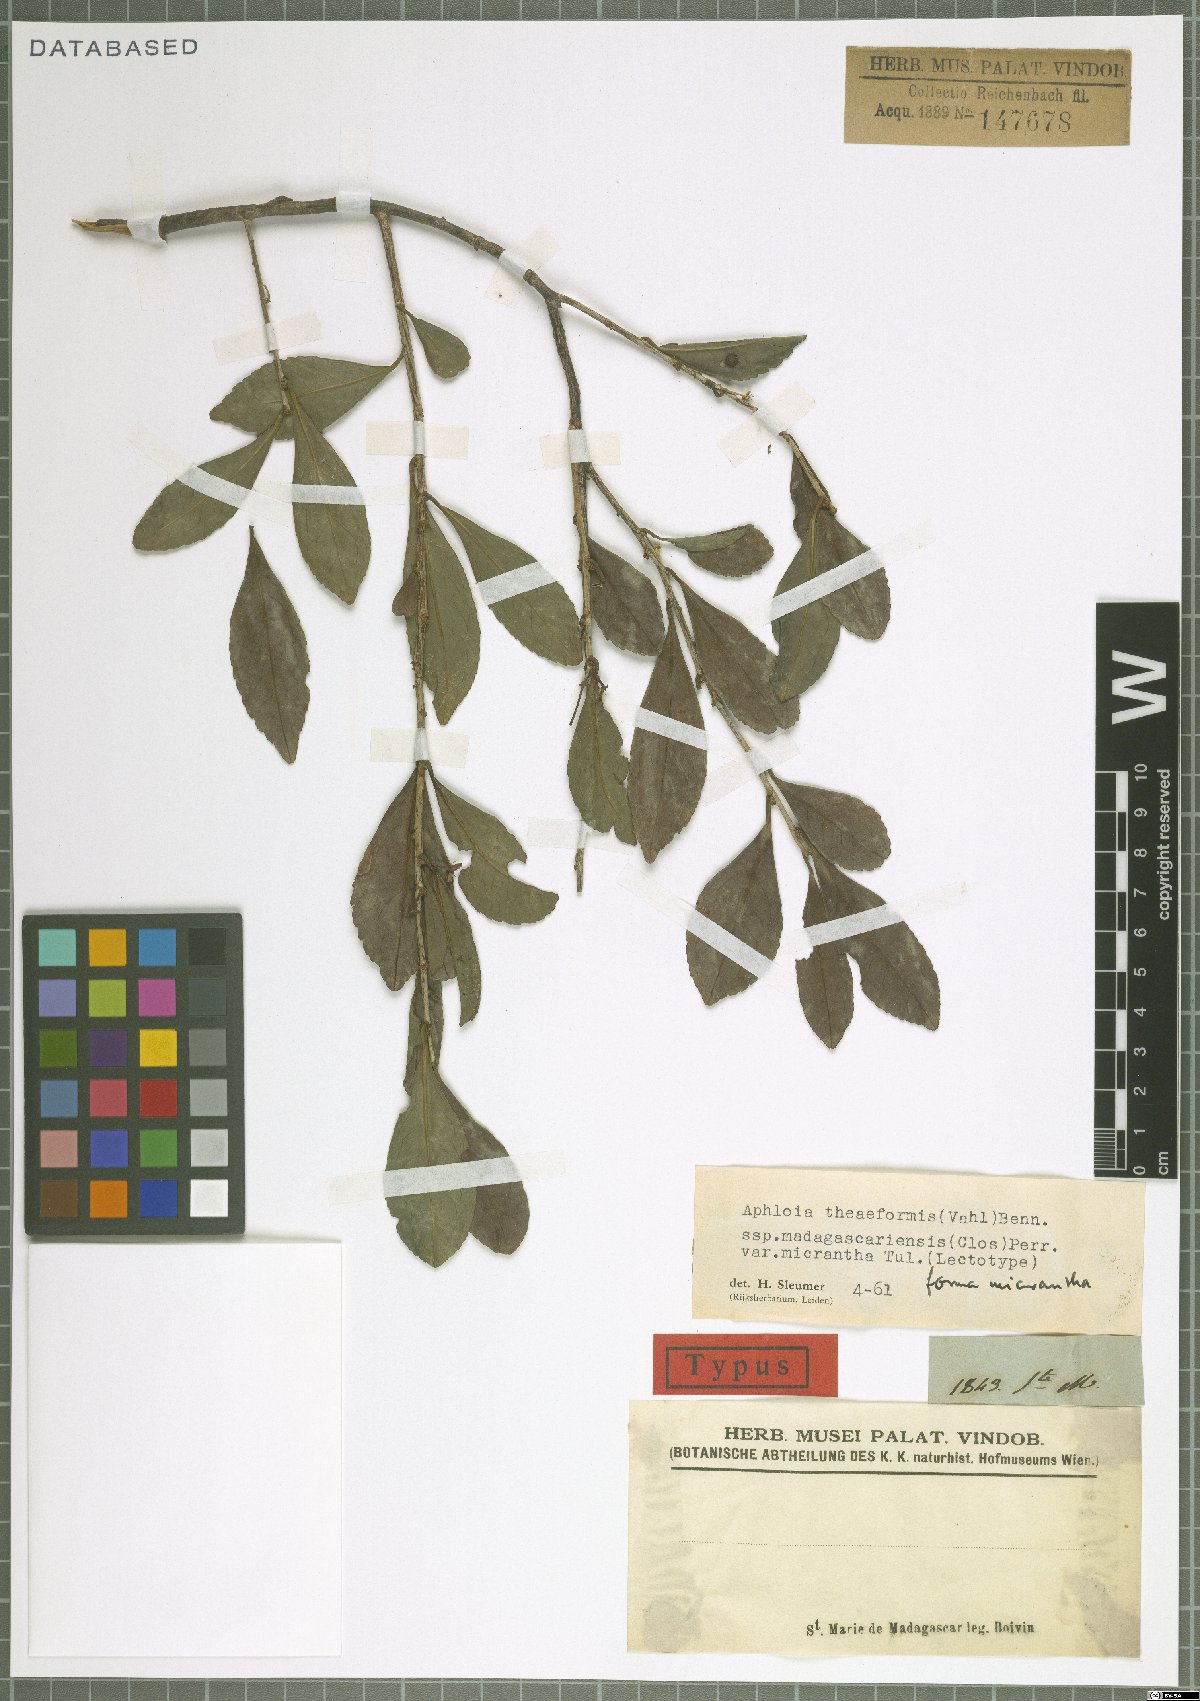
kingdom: Plantae
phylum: Tracheophyta
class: Magnoliopsida
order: Crossosomatales
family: Aphloiaceae
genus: Aphloia
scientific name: Aphloia theiformis
